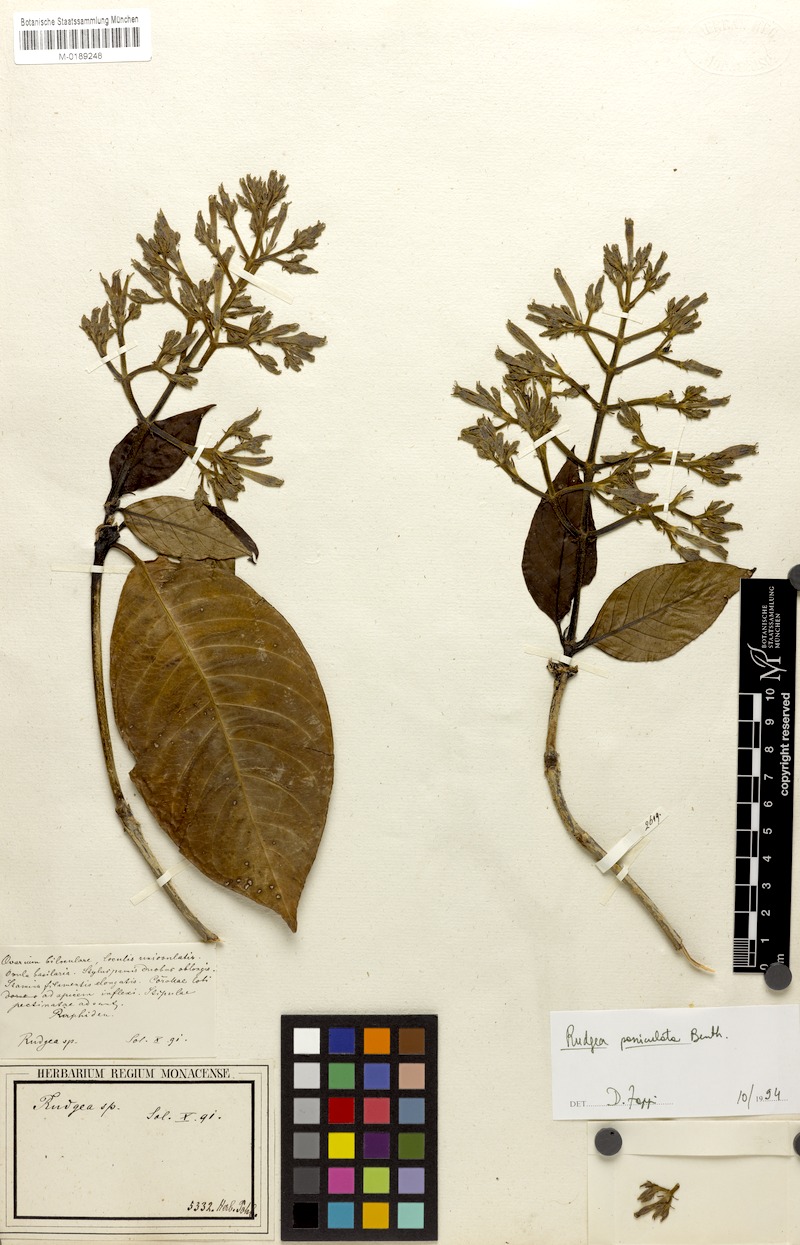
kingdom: Plantae
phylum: Tracheophyta
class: Magnoliopsida
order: Gentianales
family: Rubiaceae
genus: Rudgea
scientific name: Rudgea jasminoides
